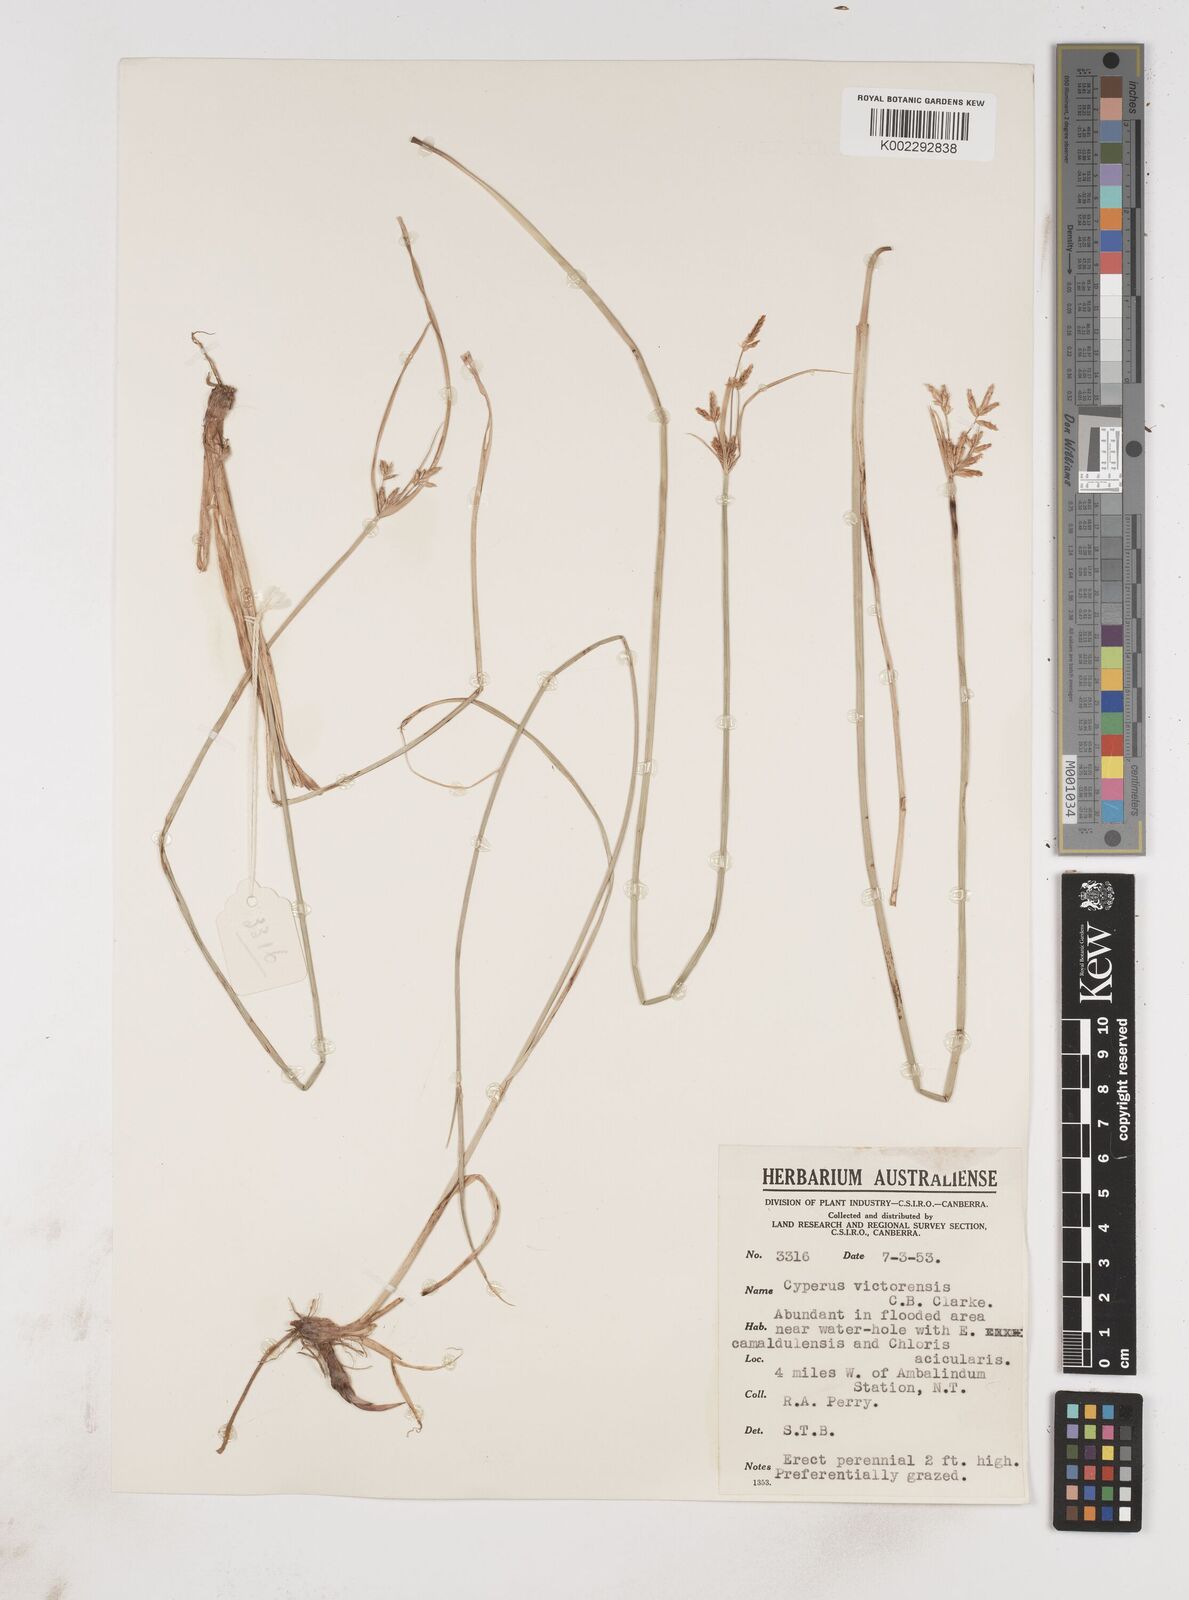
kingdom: Plantae
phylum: Tracheophyta
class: Liliopsida
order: Poales
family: Cyperaceae
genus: Cyperus
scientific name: Cyperus victoriensis
